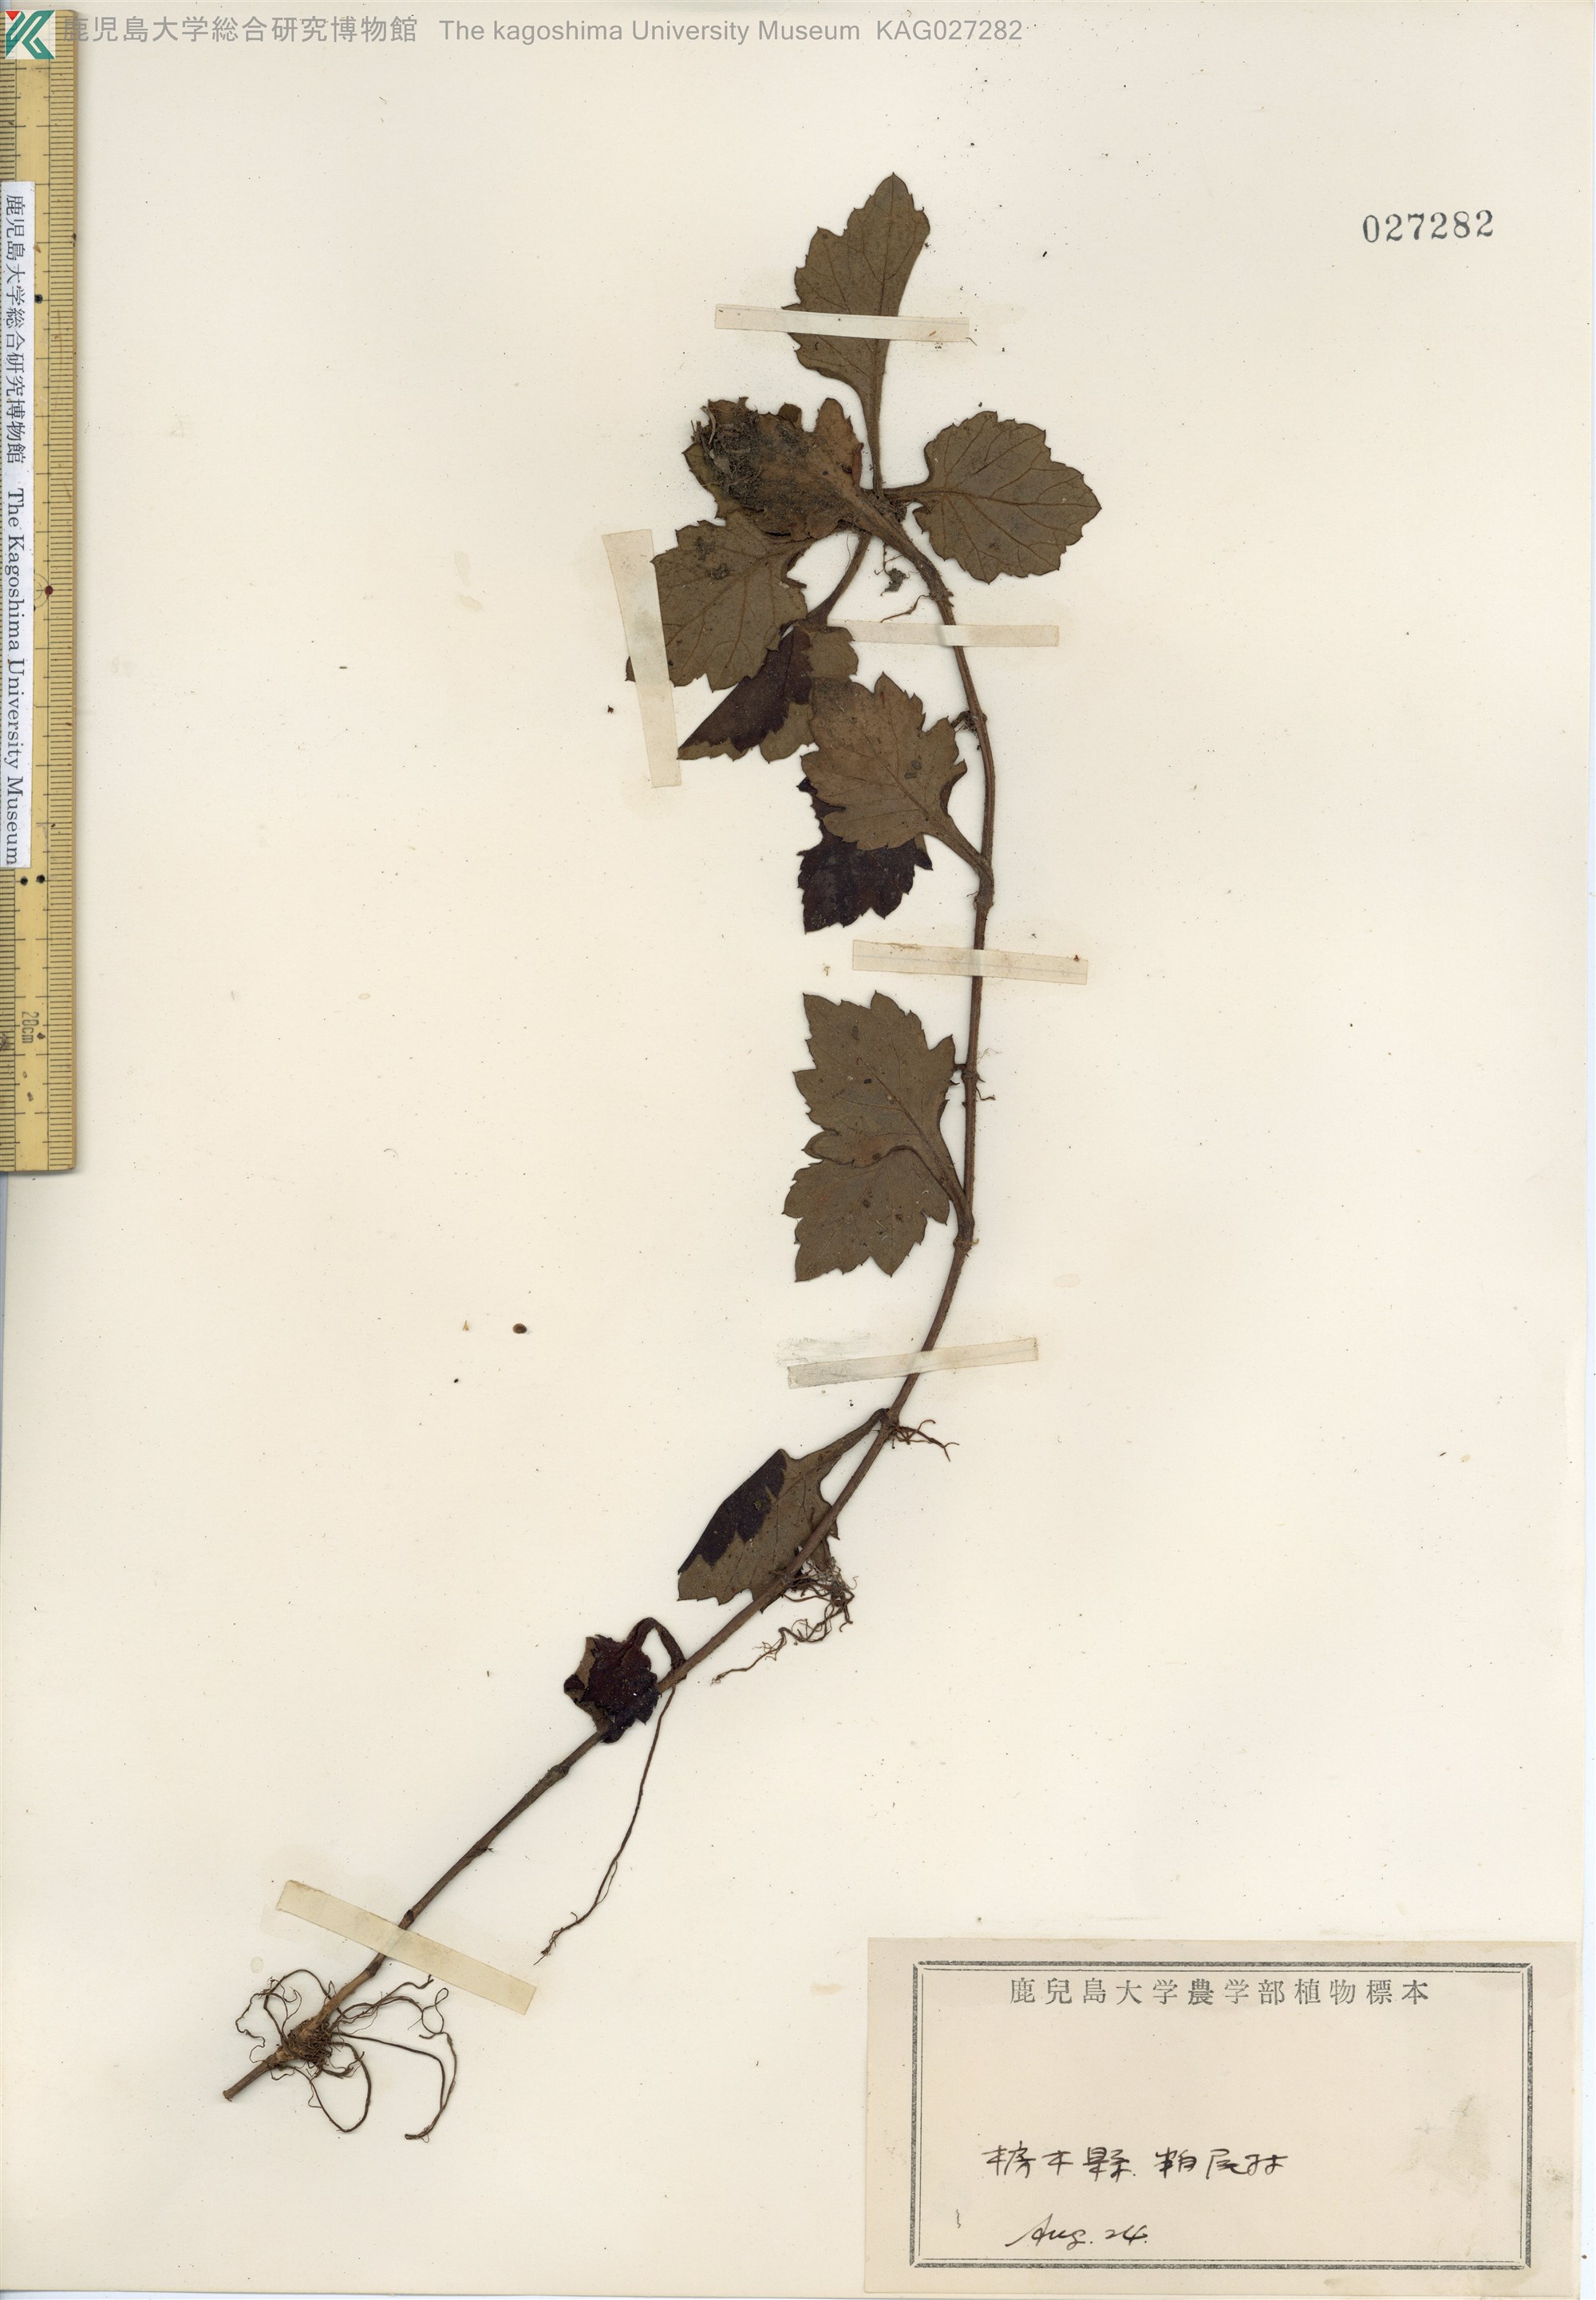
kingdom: Plantae
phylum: Tracheophyta
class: Magnoliopsida
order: Asterales
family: Asteraceae
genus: Artemisia
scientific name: Artemisia stolonifera
